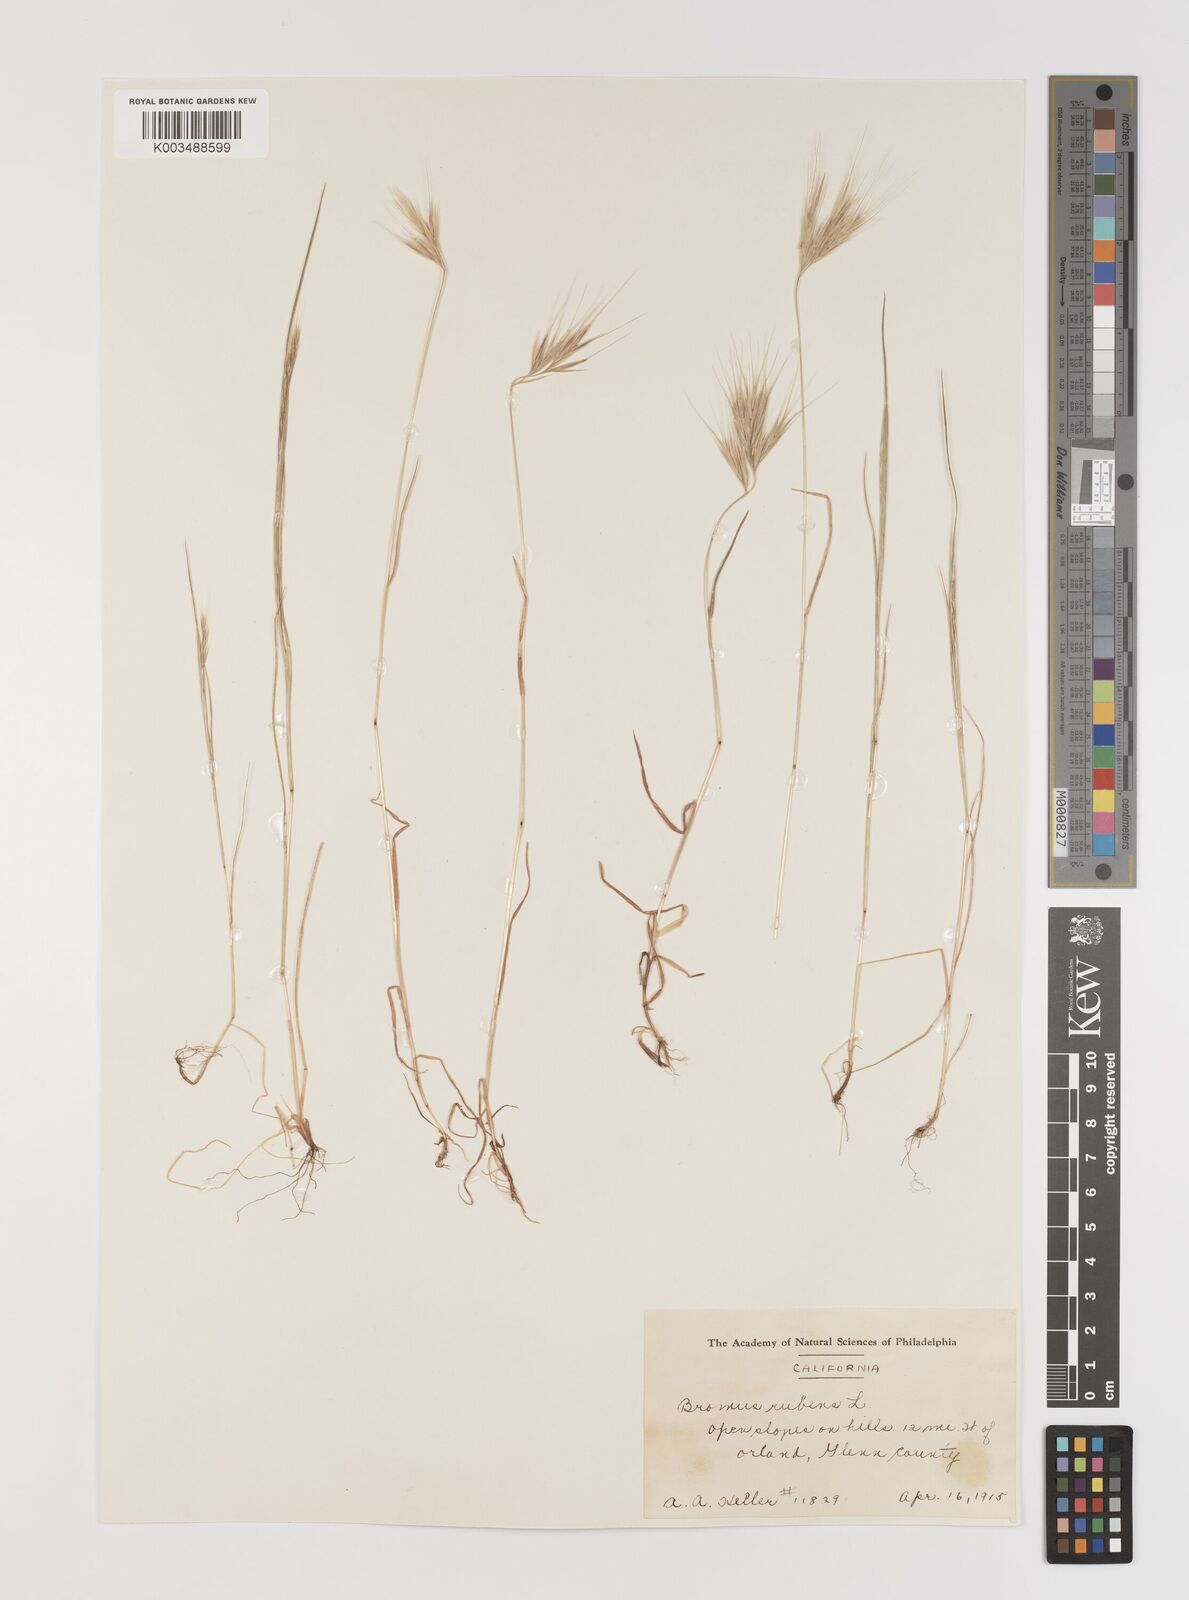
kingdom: Plantae
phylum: Tracheophyta
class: Liliopsida
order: Poales
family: Poaceae
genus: Bromus
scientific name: Bromus rubens
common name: Red brome
